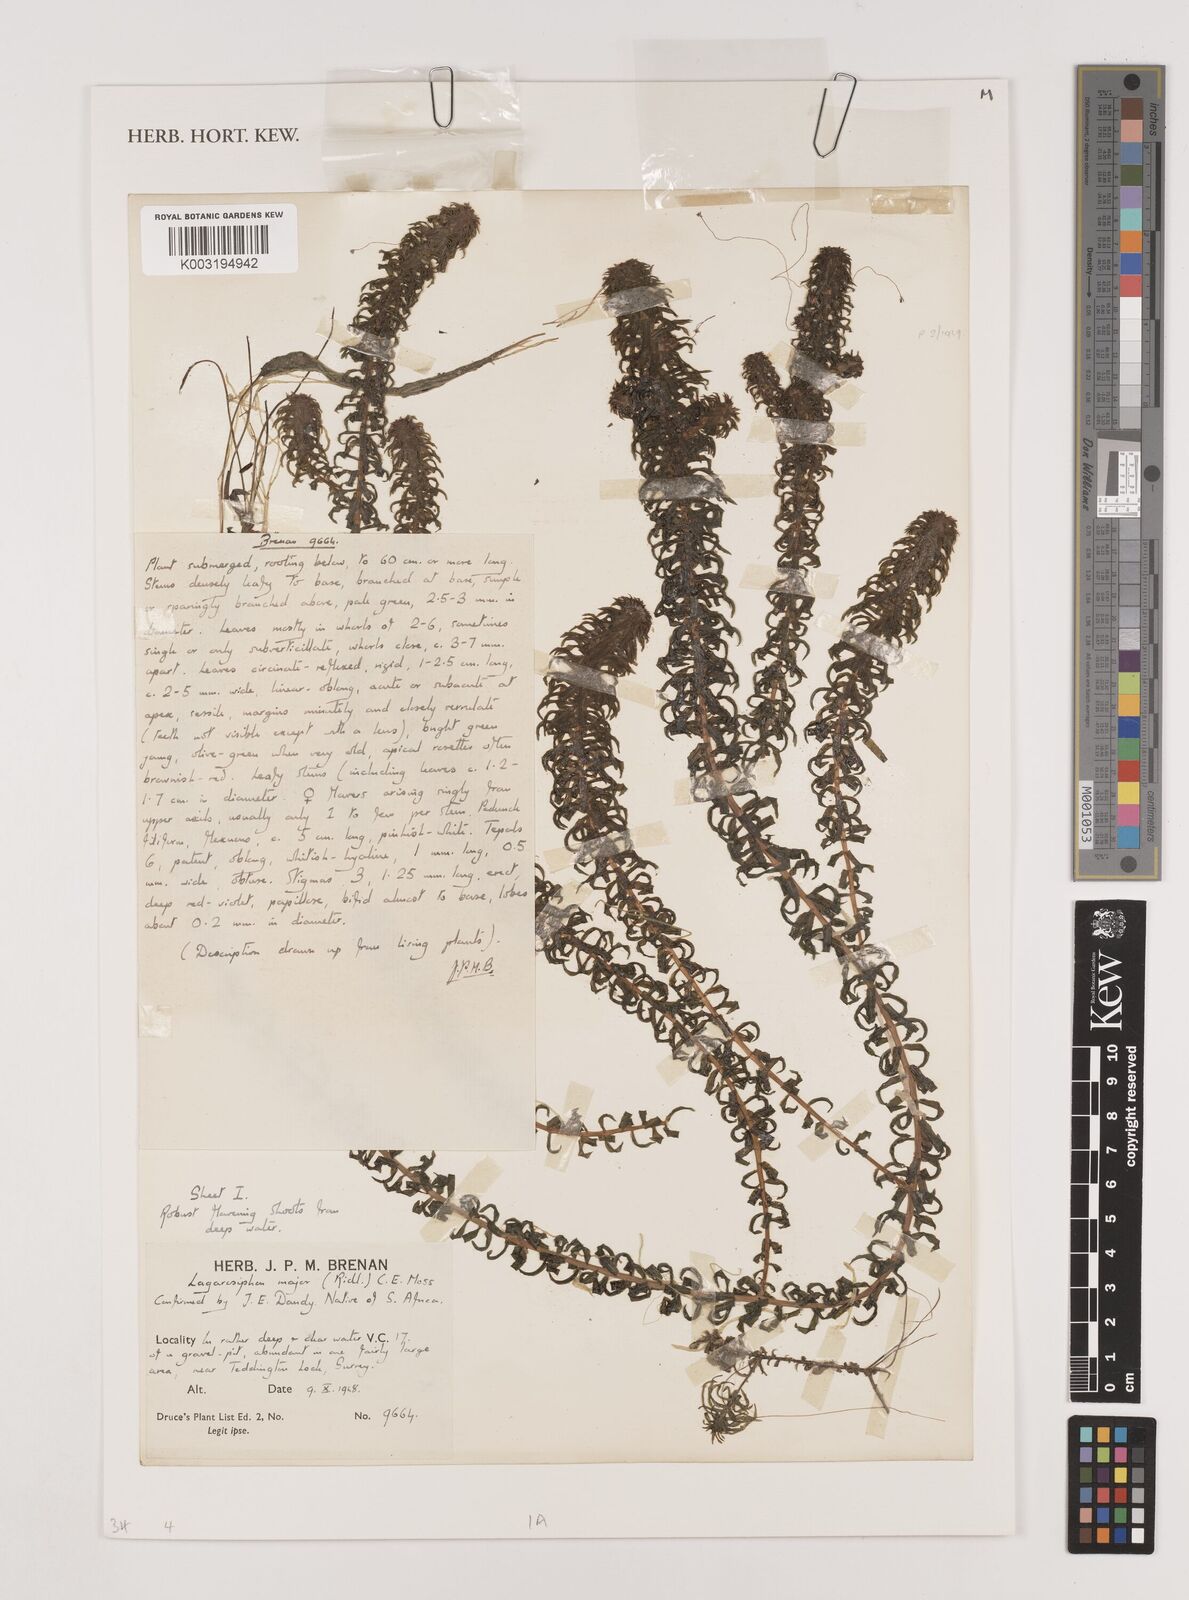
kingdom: Plantae
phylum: Tracheophyta
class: Liliopsida
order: Alismatales
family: Hydrocharitaceae
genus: Lagarosiphon
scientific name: Lagarosiphon major
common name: Curly waterweed
